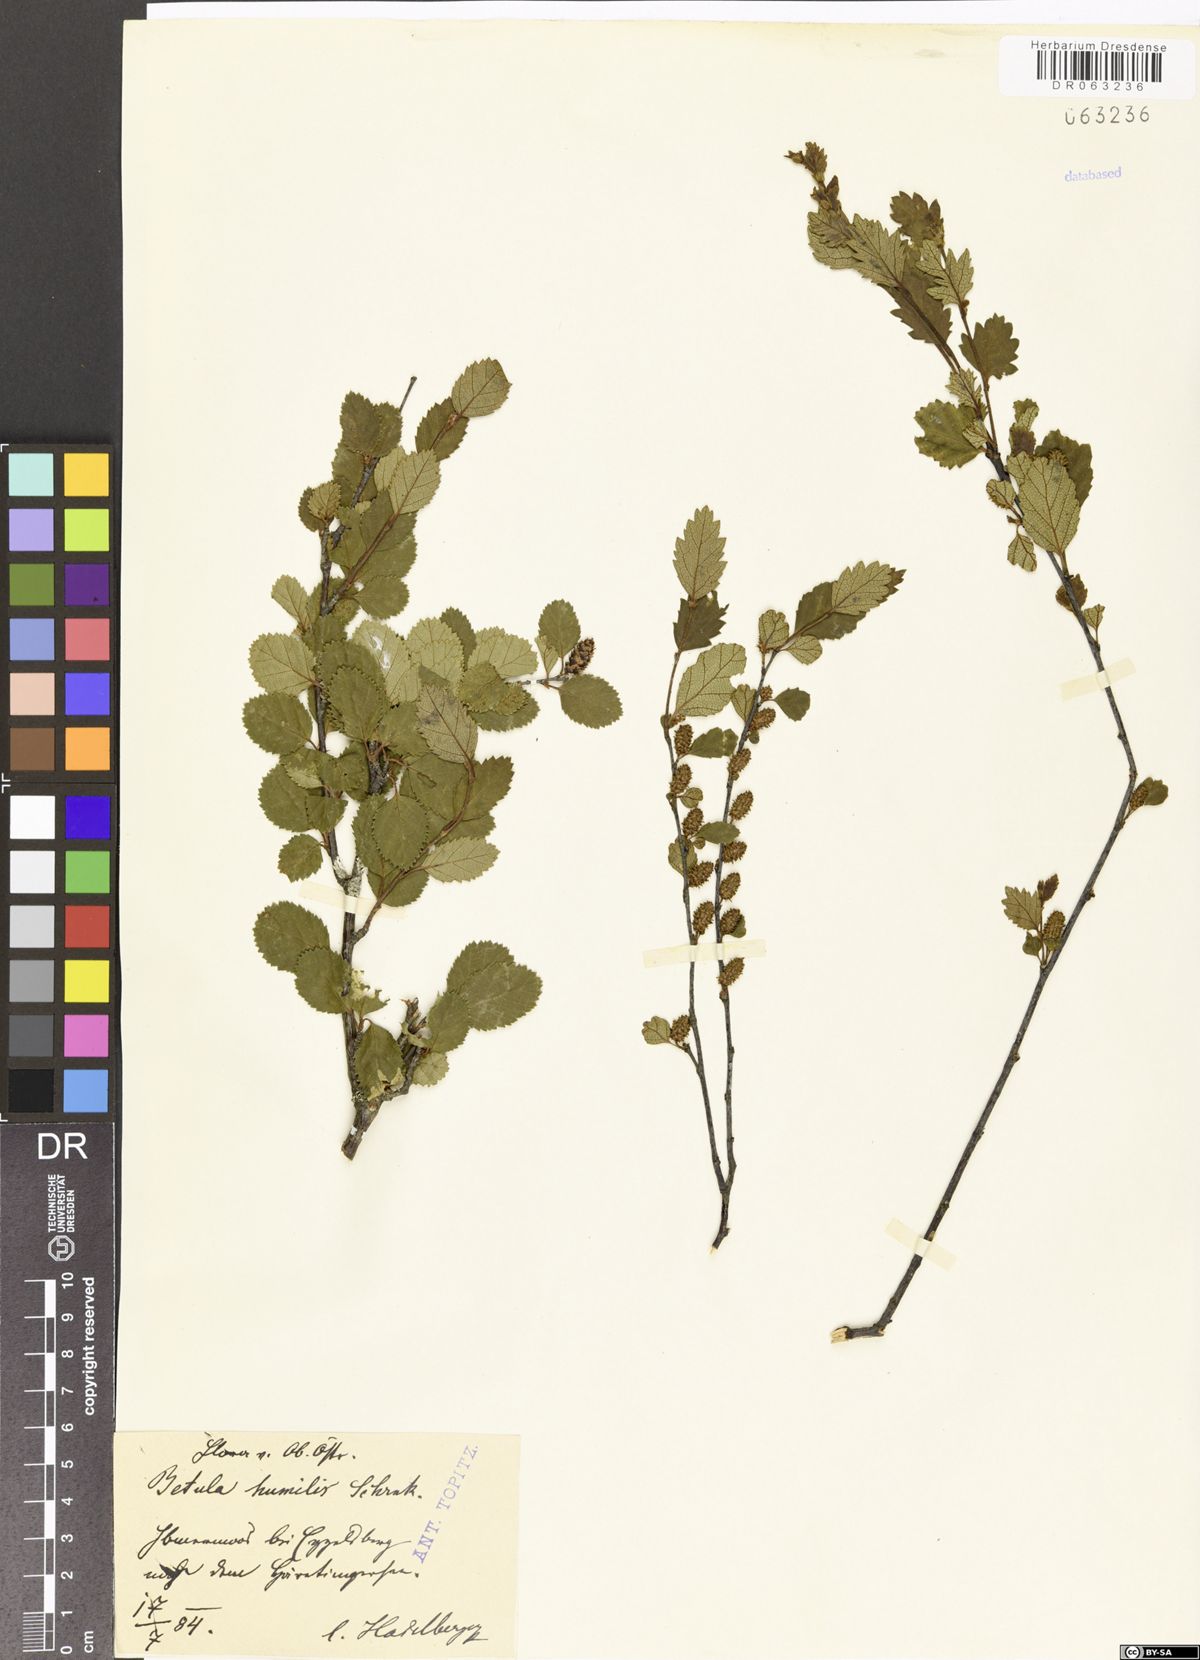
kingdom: Plantae
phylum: Tracheophyta
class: Magnoliopsida
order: Fagales
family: Betulaceae
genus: Betula
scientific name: Betula humilis
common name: Shrubby birch
